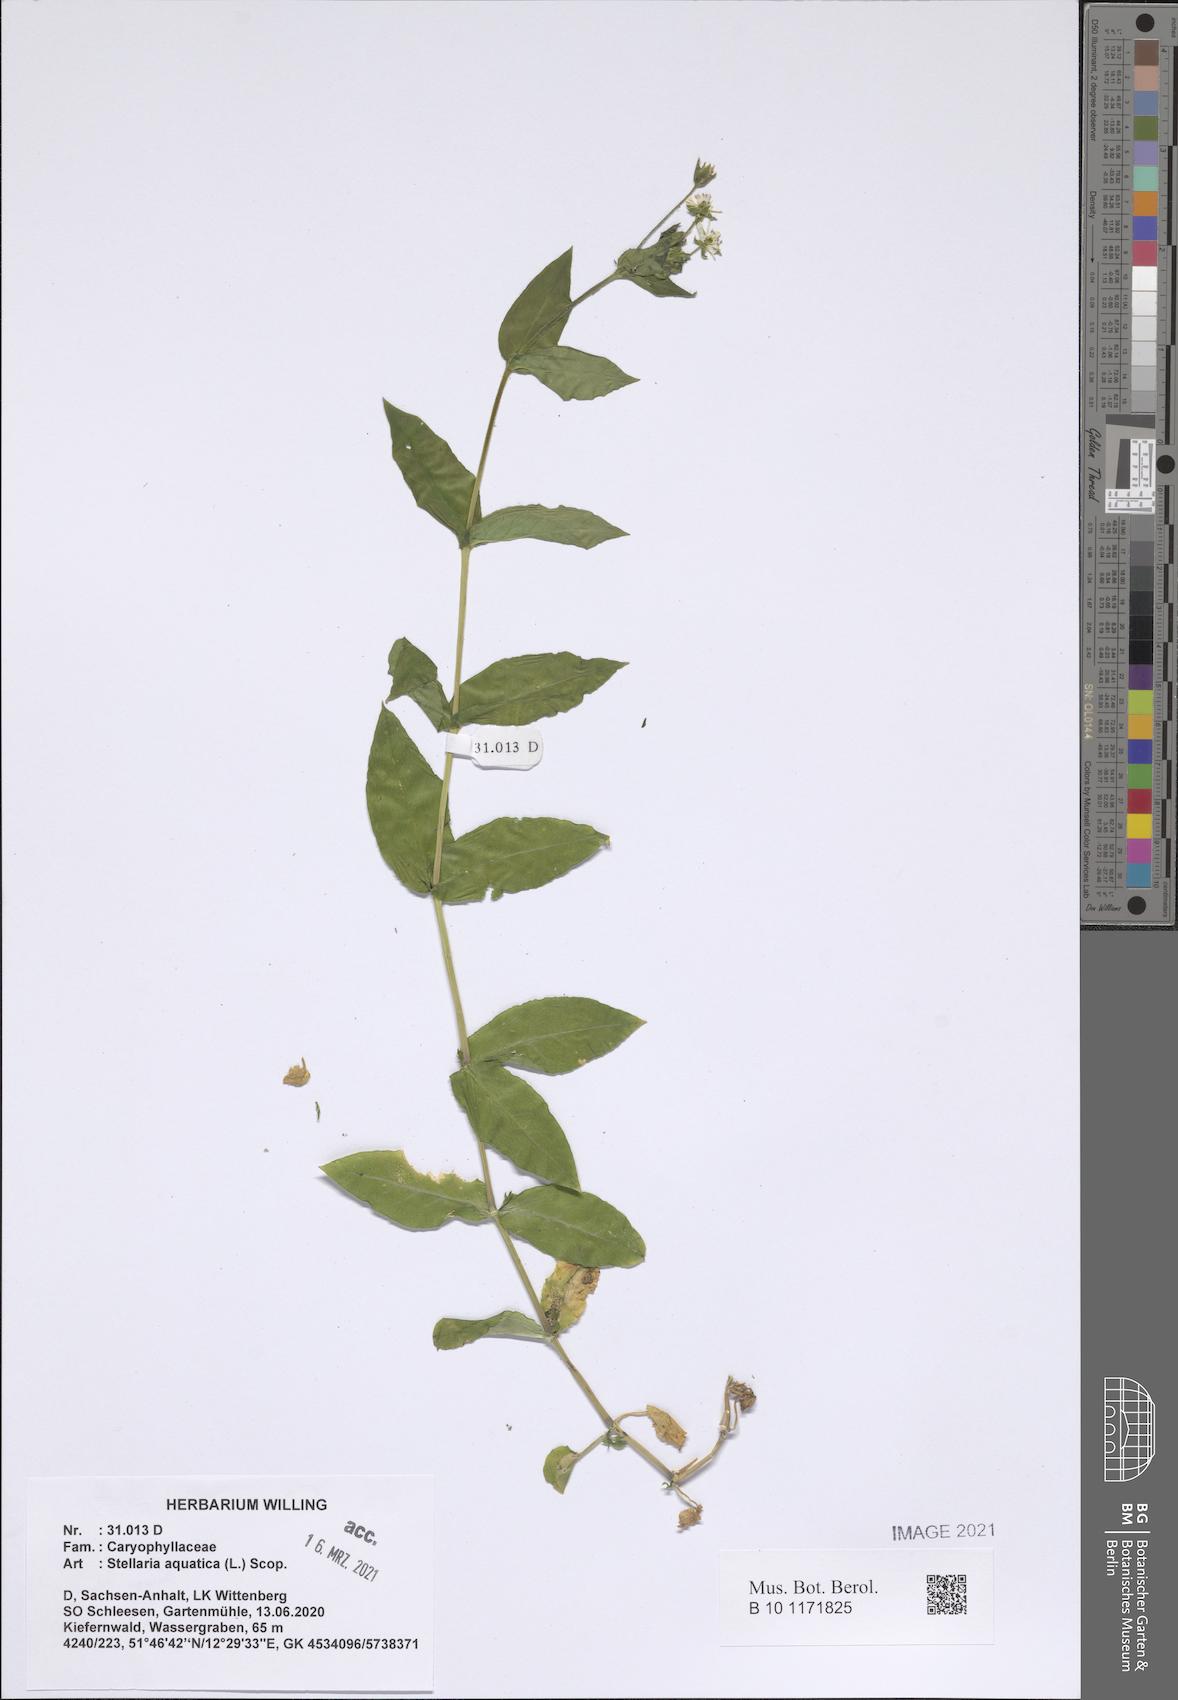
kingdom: Plantae
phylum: Tracheophyta
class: Magnoliopsida
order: Caryophyllales
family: Caryophyllaceae
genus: Stellaria
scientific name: Stellaria aquatica
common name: Water chickweed
